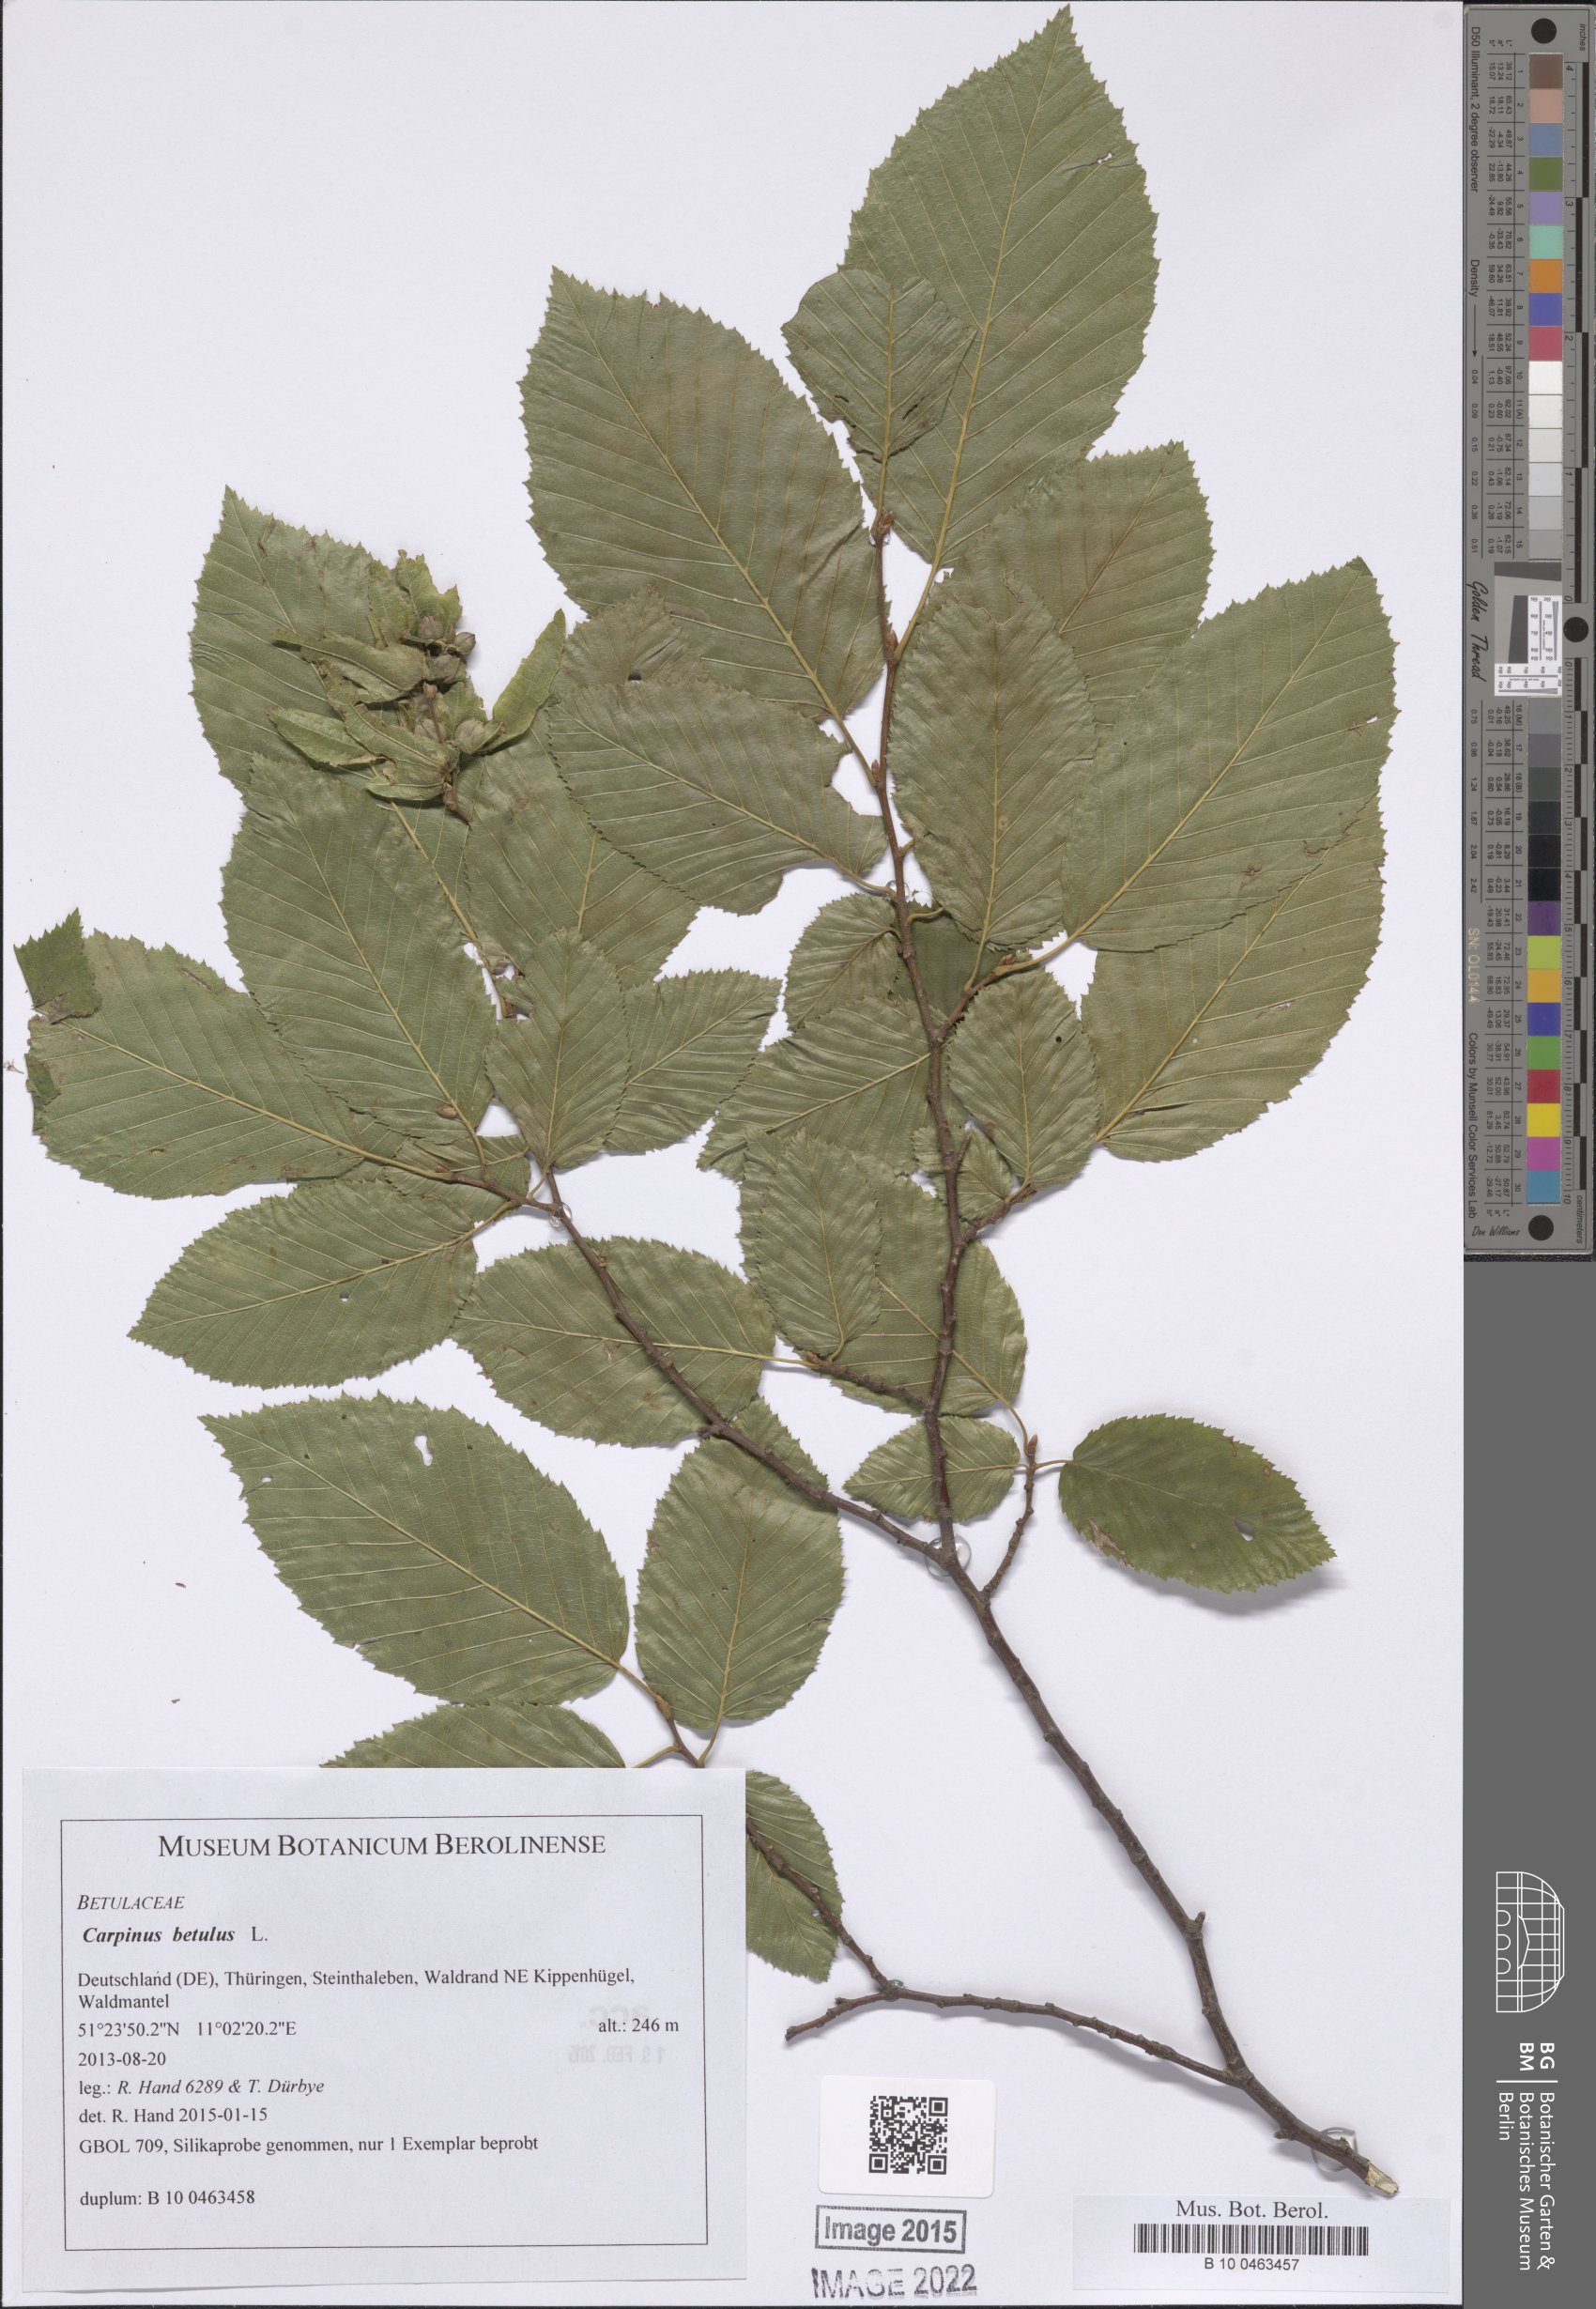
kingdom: Plantae
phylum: Tracheophyta
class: Magnoliopsida
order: Fagales
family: Betulaceae
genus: Carpinus
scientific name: Carpinus betulus
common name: Hornbeam
